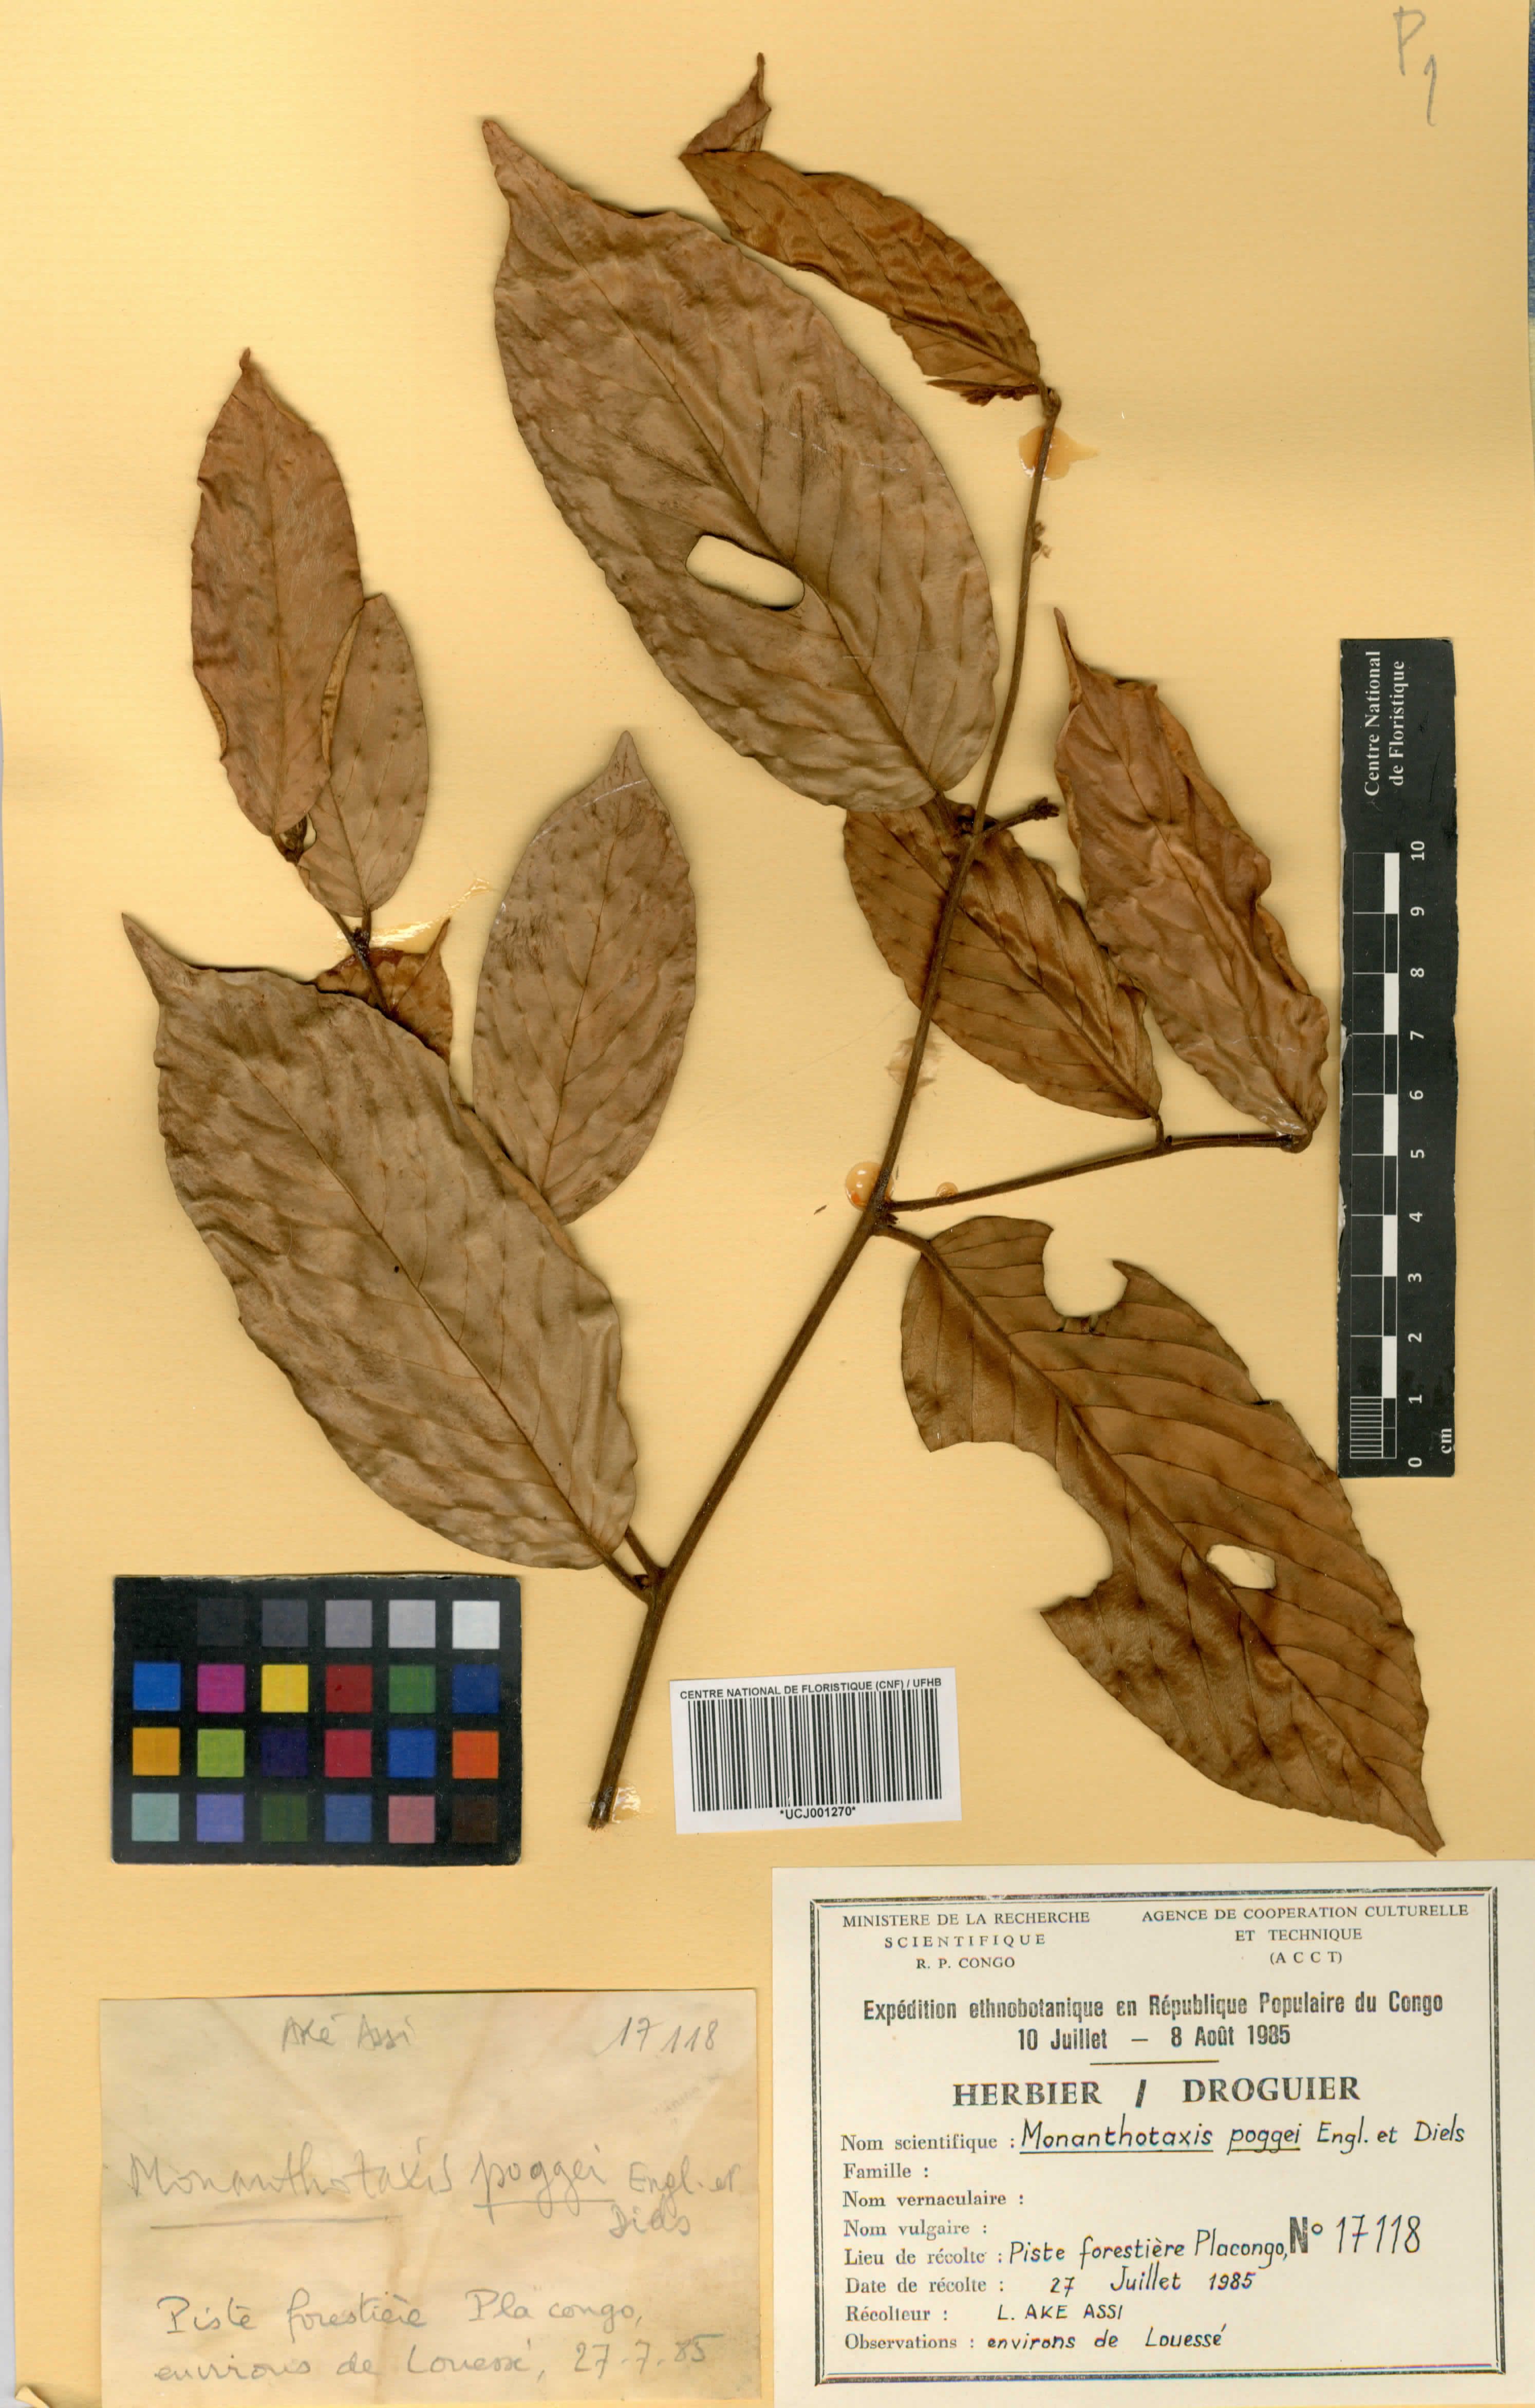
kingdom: Plantae
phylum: Tracheophyta
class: Magnoliopsida
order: Magnoliales
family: Annonaceae
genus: Monanthotaxis
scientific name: Monanthotaxis poggei
